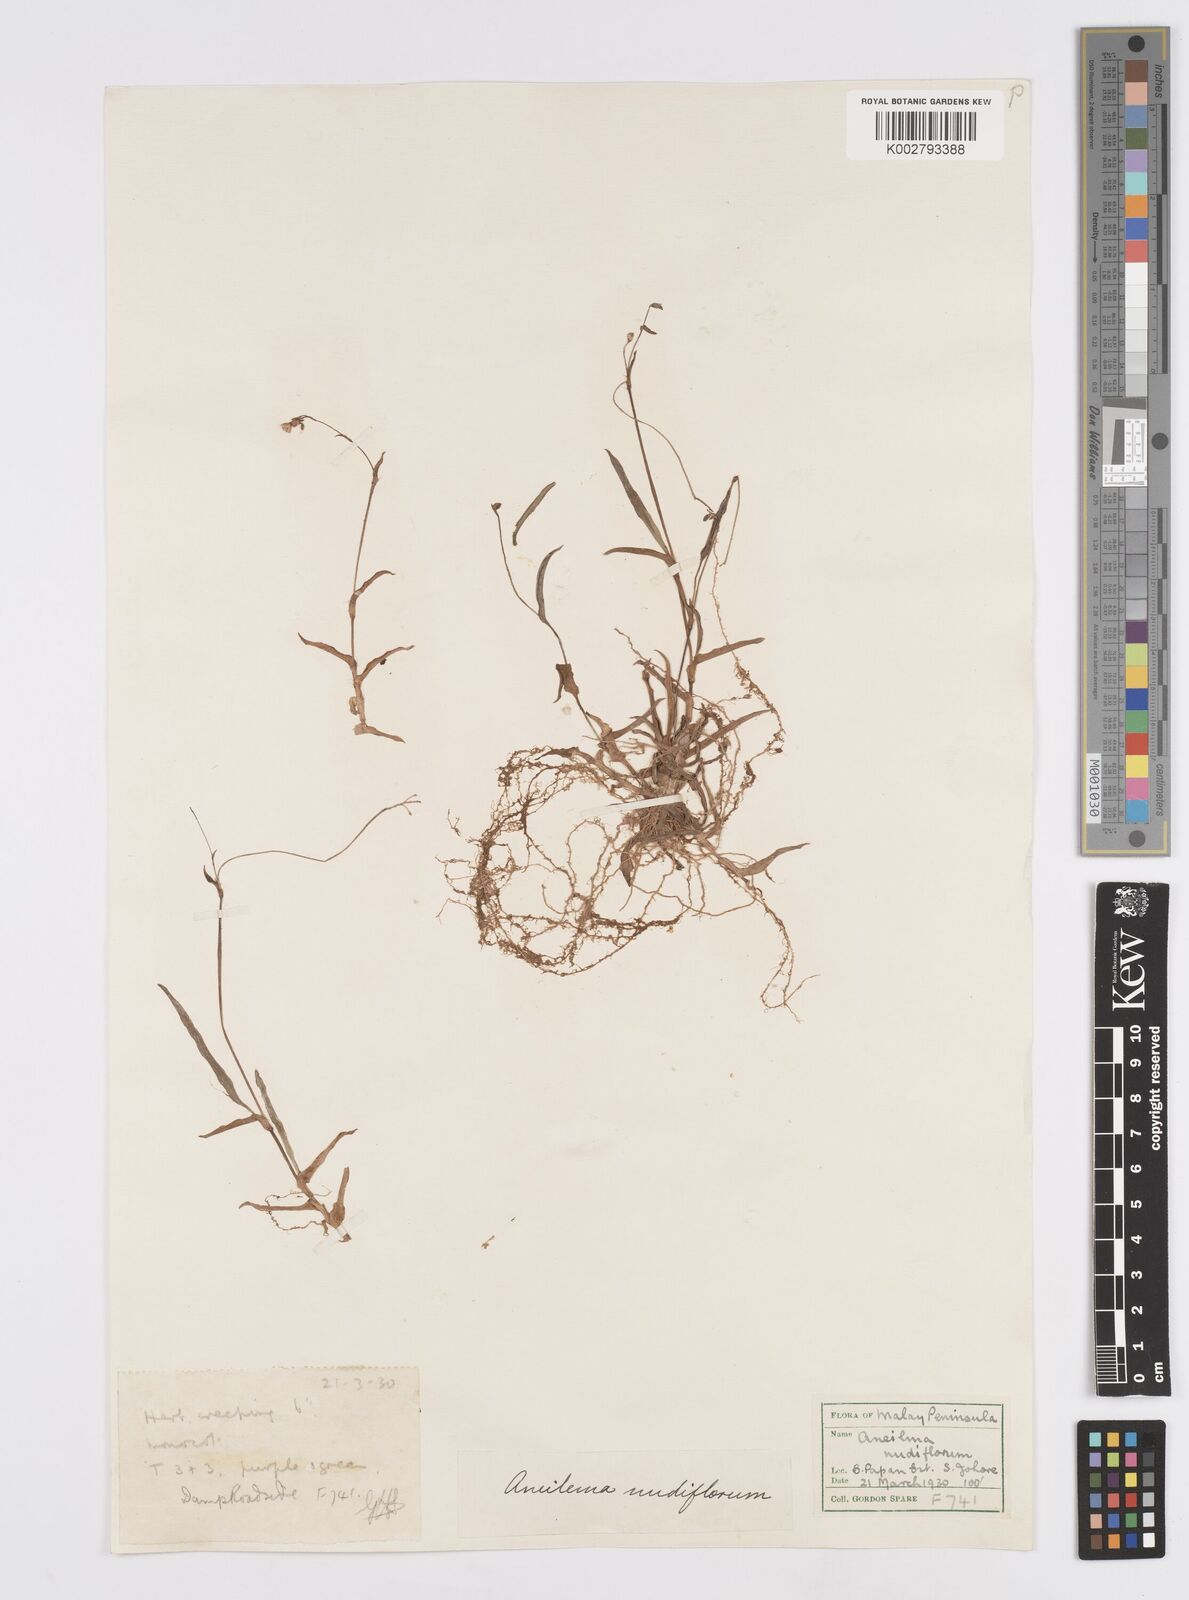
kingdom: Plantae
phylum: Tracheophyta
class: Liliopsida
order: Commelinales
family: Commelinaceae
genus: Murdannia
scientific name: Murdannia
